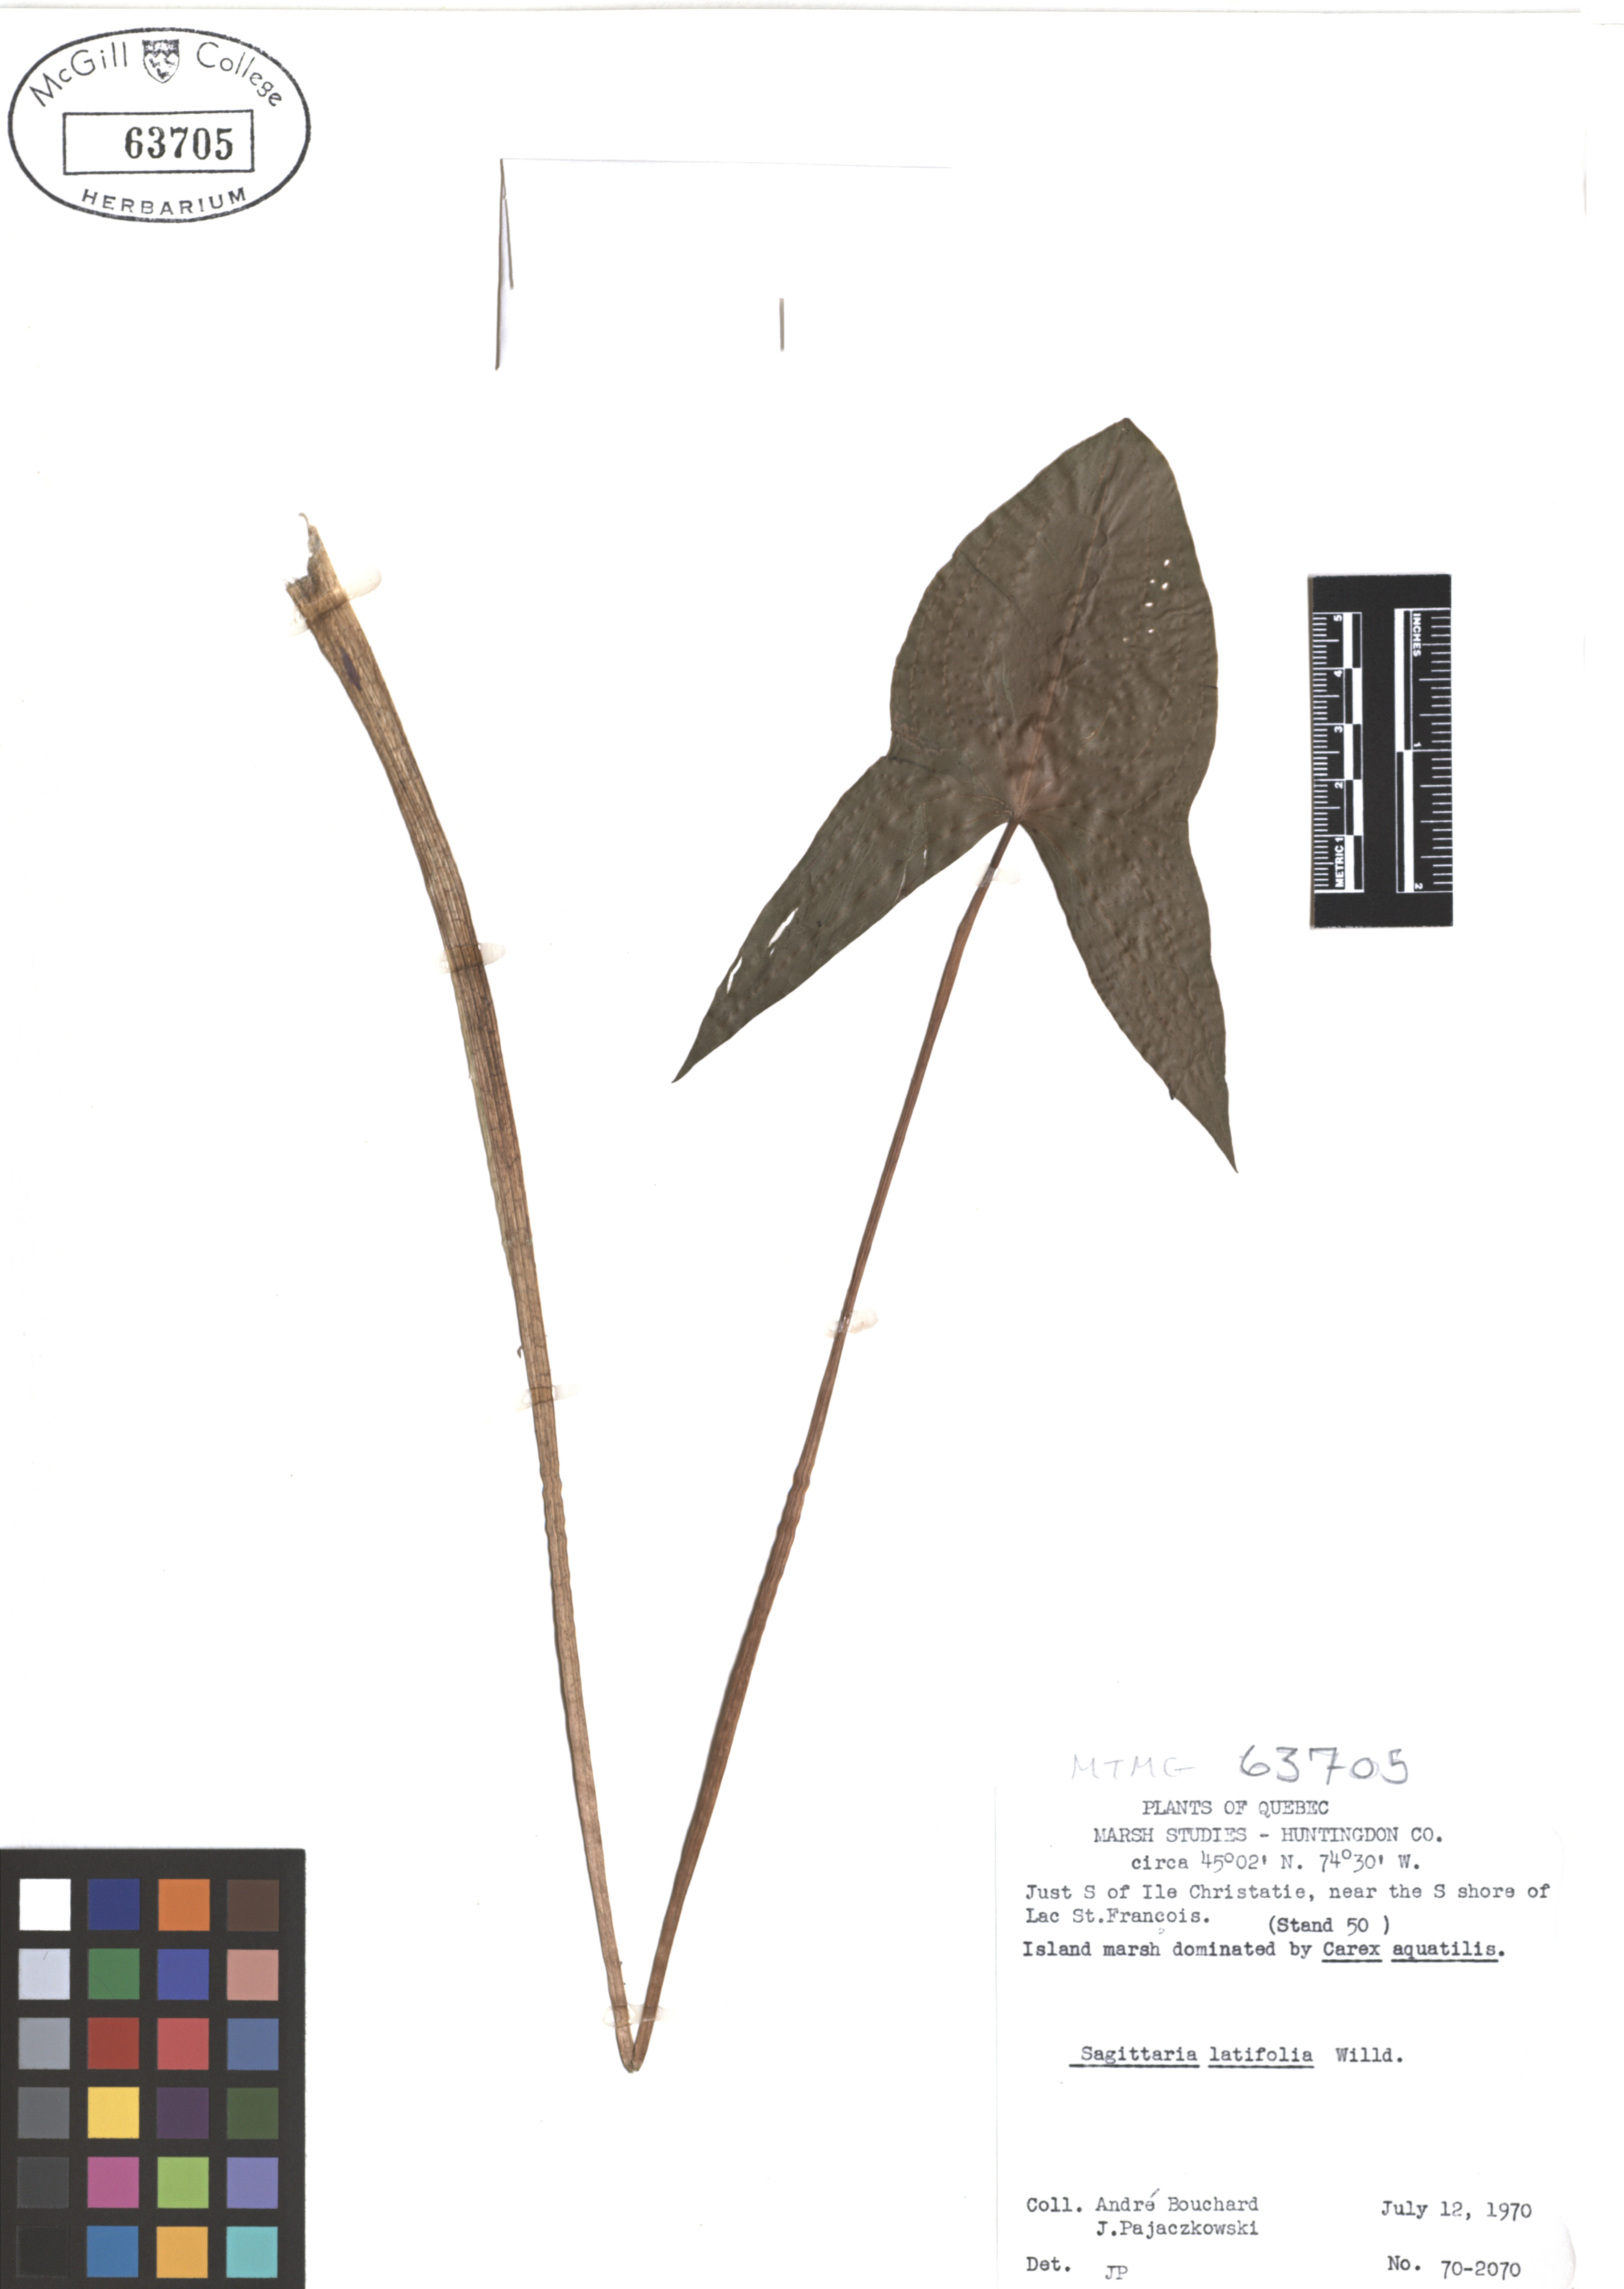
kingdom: Plantae
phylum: Tracheophyta
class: Liliopsida
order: Alismatales
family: Alismataceae
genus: Sagittaria
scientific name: Sagittaria latifolia
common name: Duck-potato
